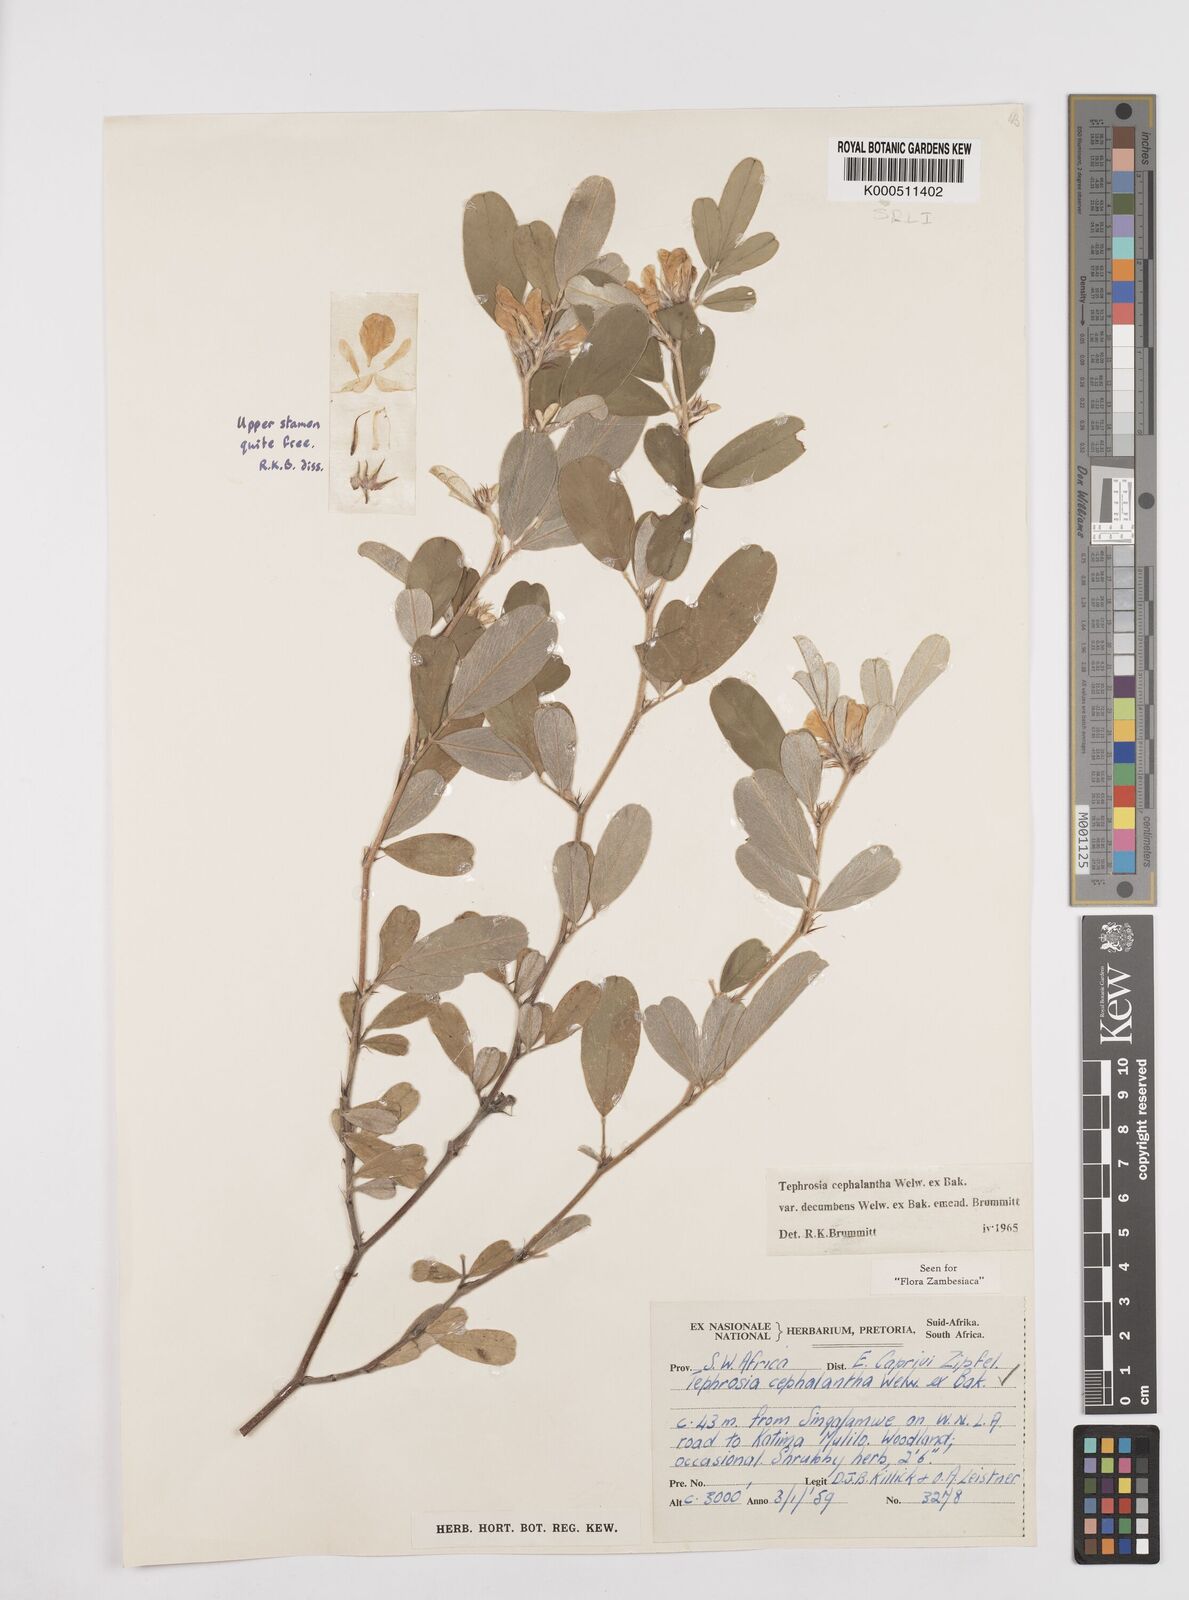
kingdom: Plantae
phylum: Tracheophyta
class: Magnoliopsida
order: Fabales
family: Fabaceae
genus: Tephrosia
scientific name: Tephrosia
